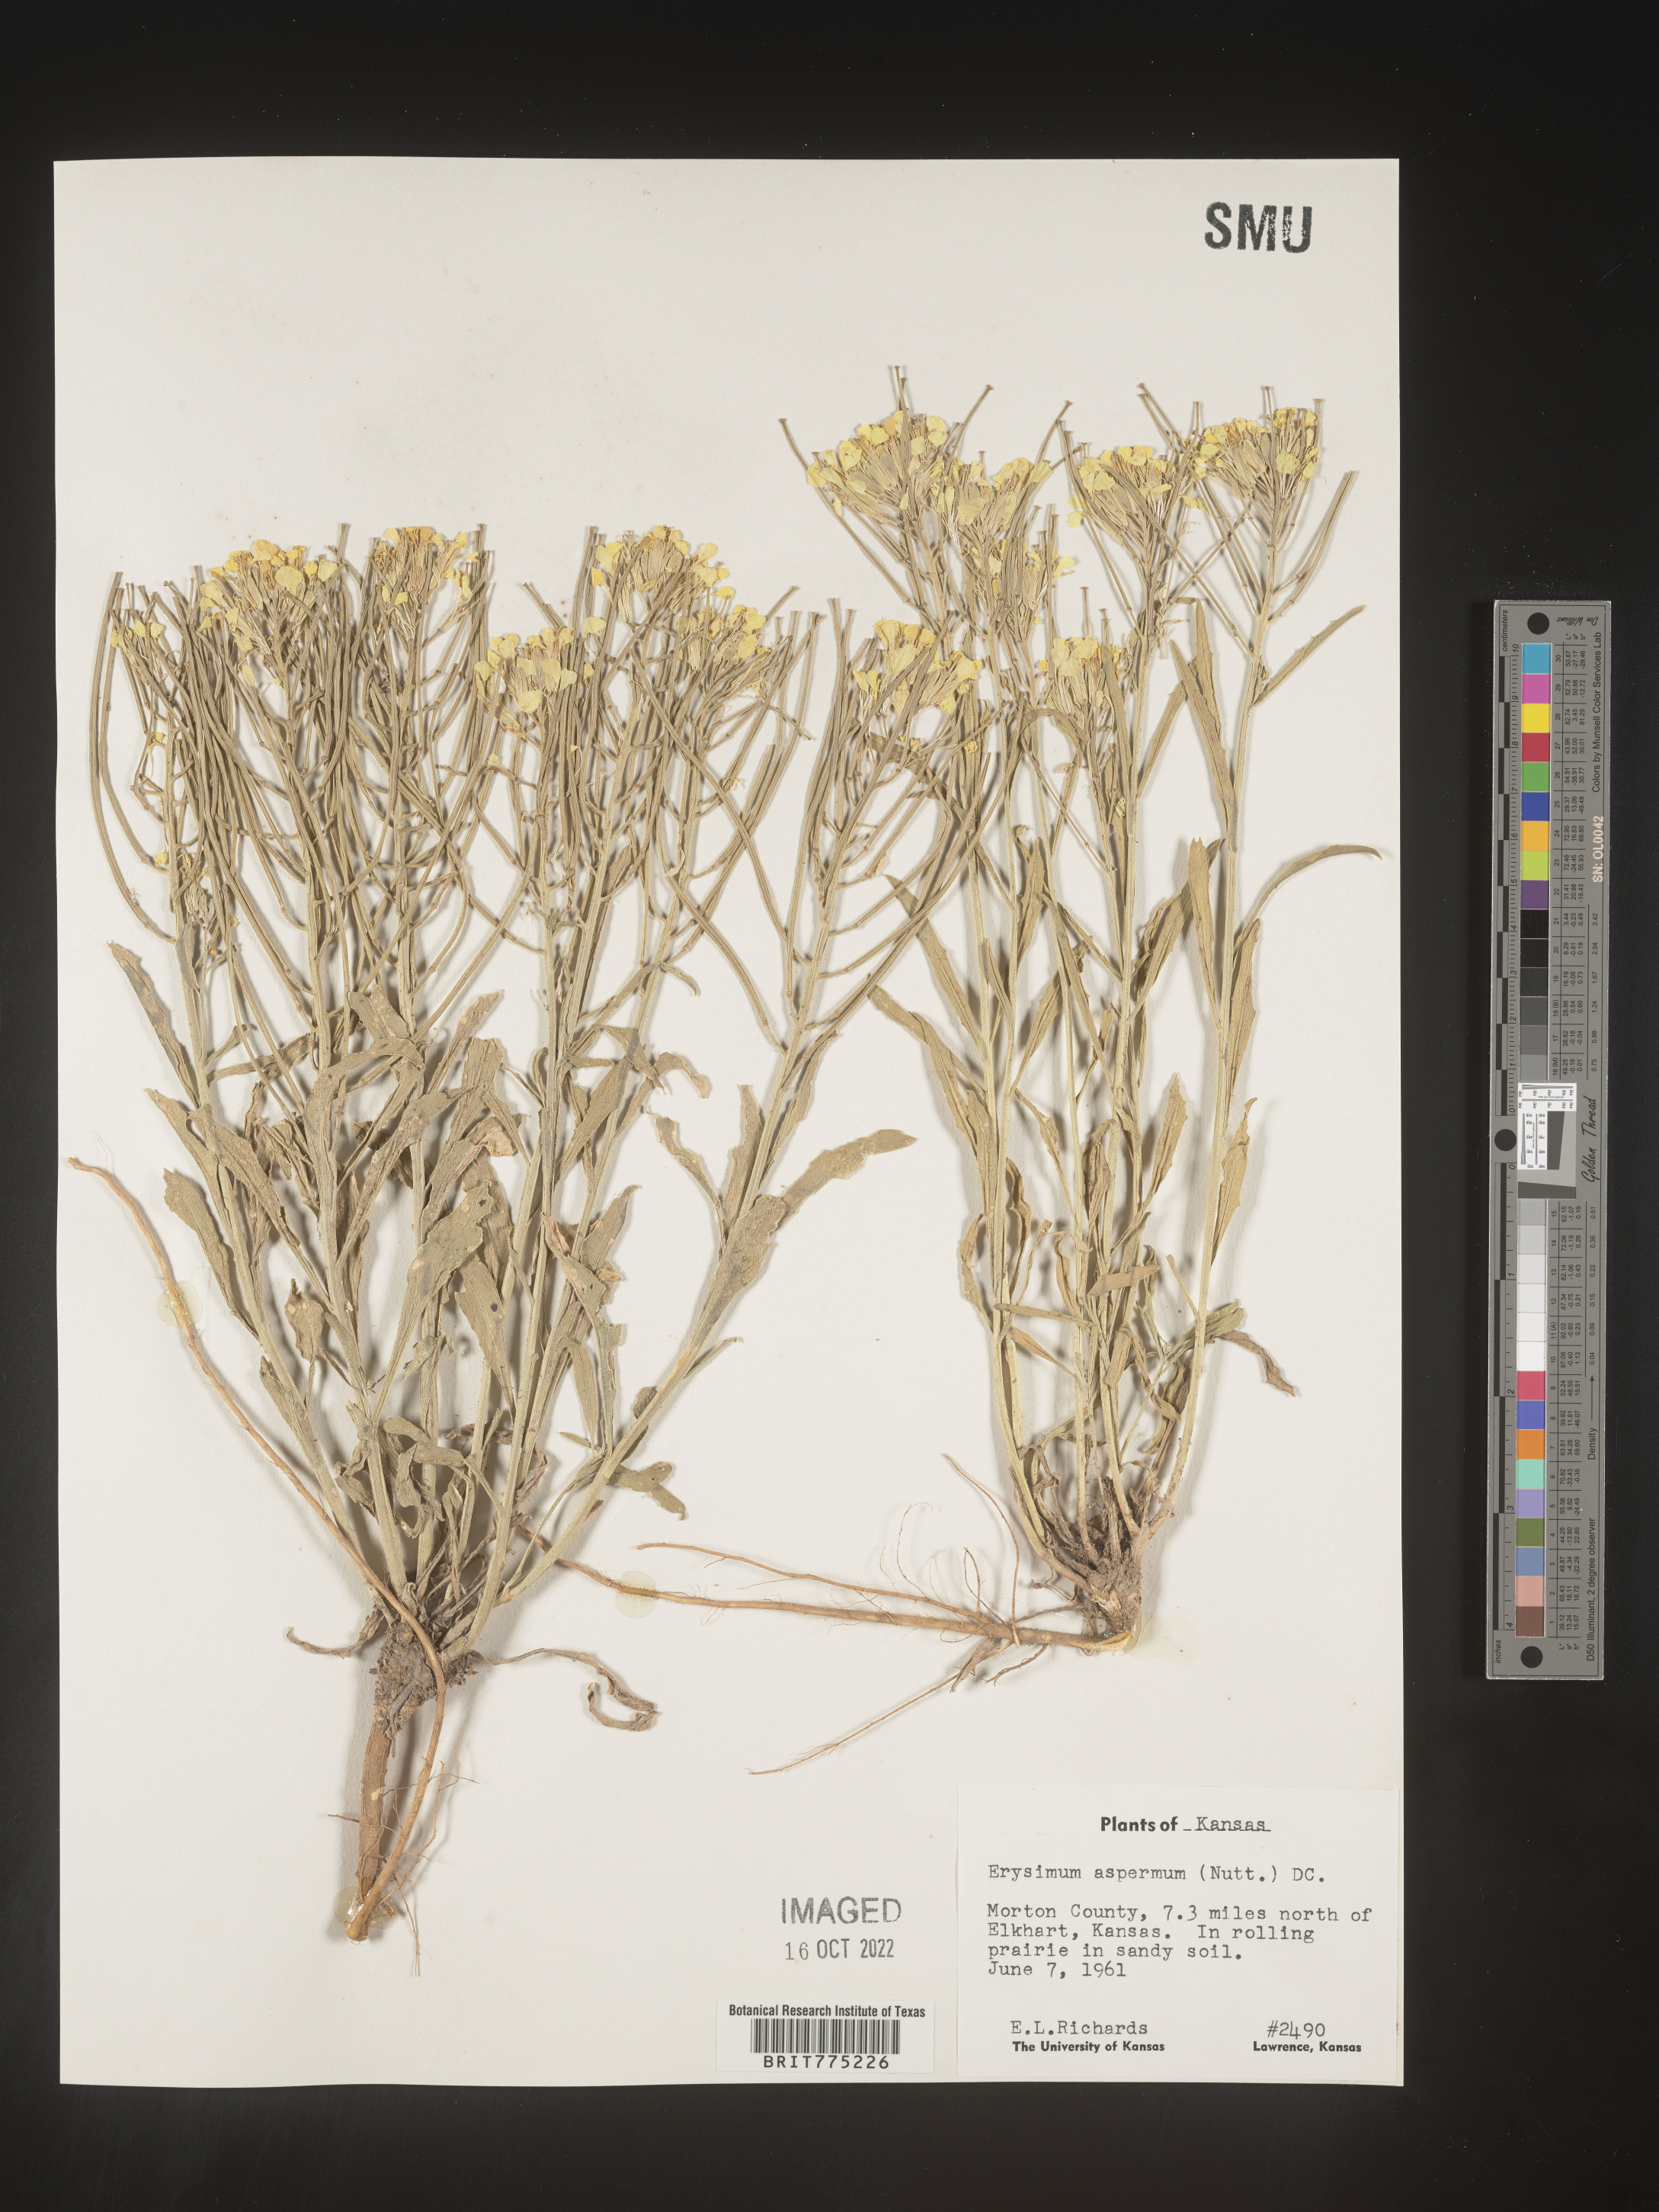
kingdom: Plantae
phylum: Tracheophyta
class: Magnoliopsida
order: Brassicales
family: Brassicaceae
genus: Erysimum
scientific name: Erysimum capitatum
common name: Western wallflower
